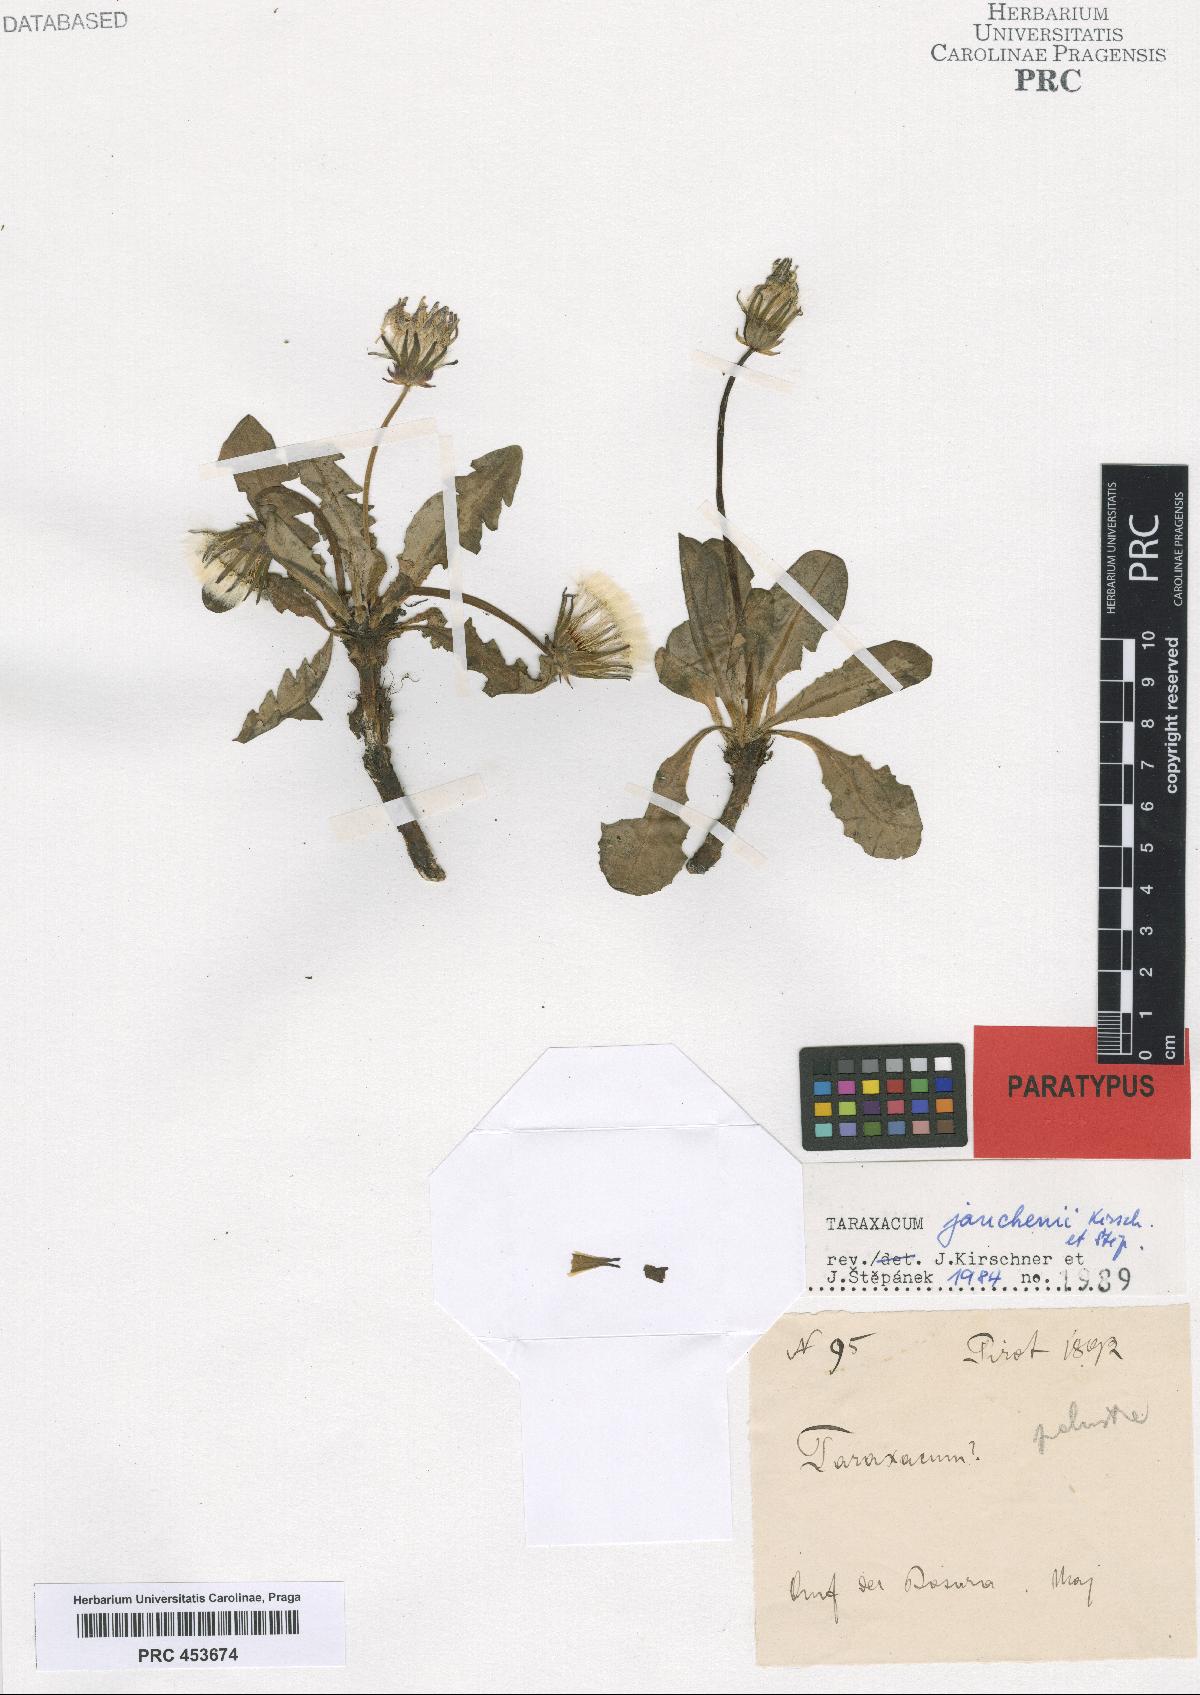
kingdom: Plantae
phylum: Tracheophyta
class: Magnoliopsida
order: Asterales
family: Asteraceae
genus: Taraxacum
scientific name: Taraxacum janchenii
